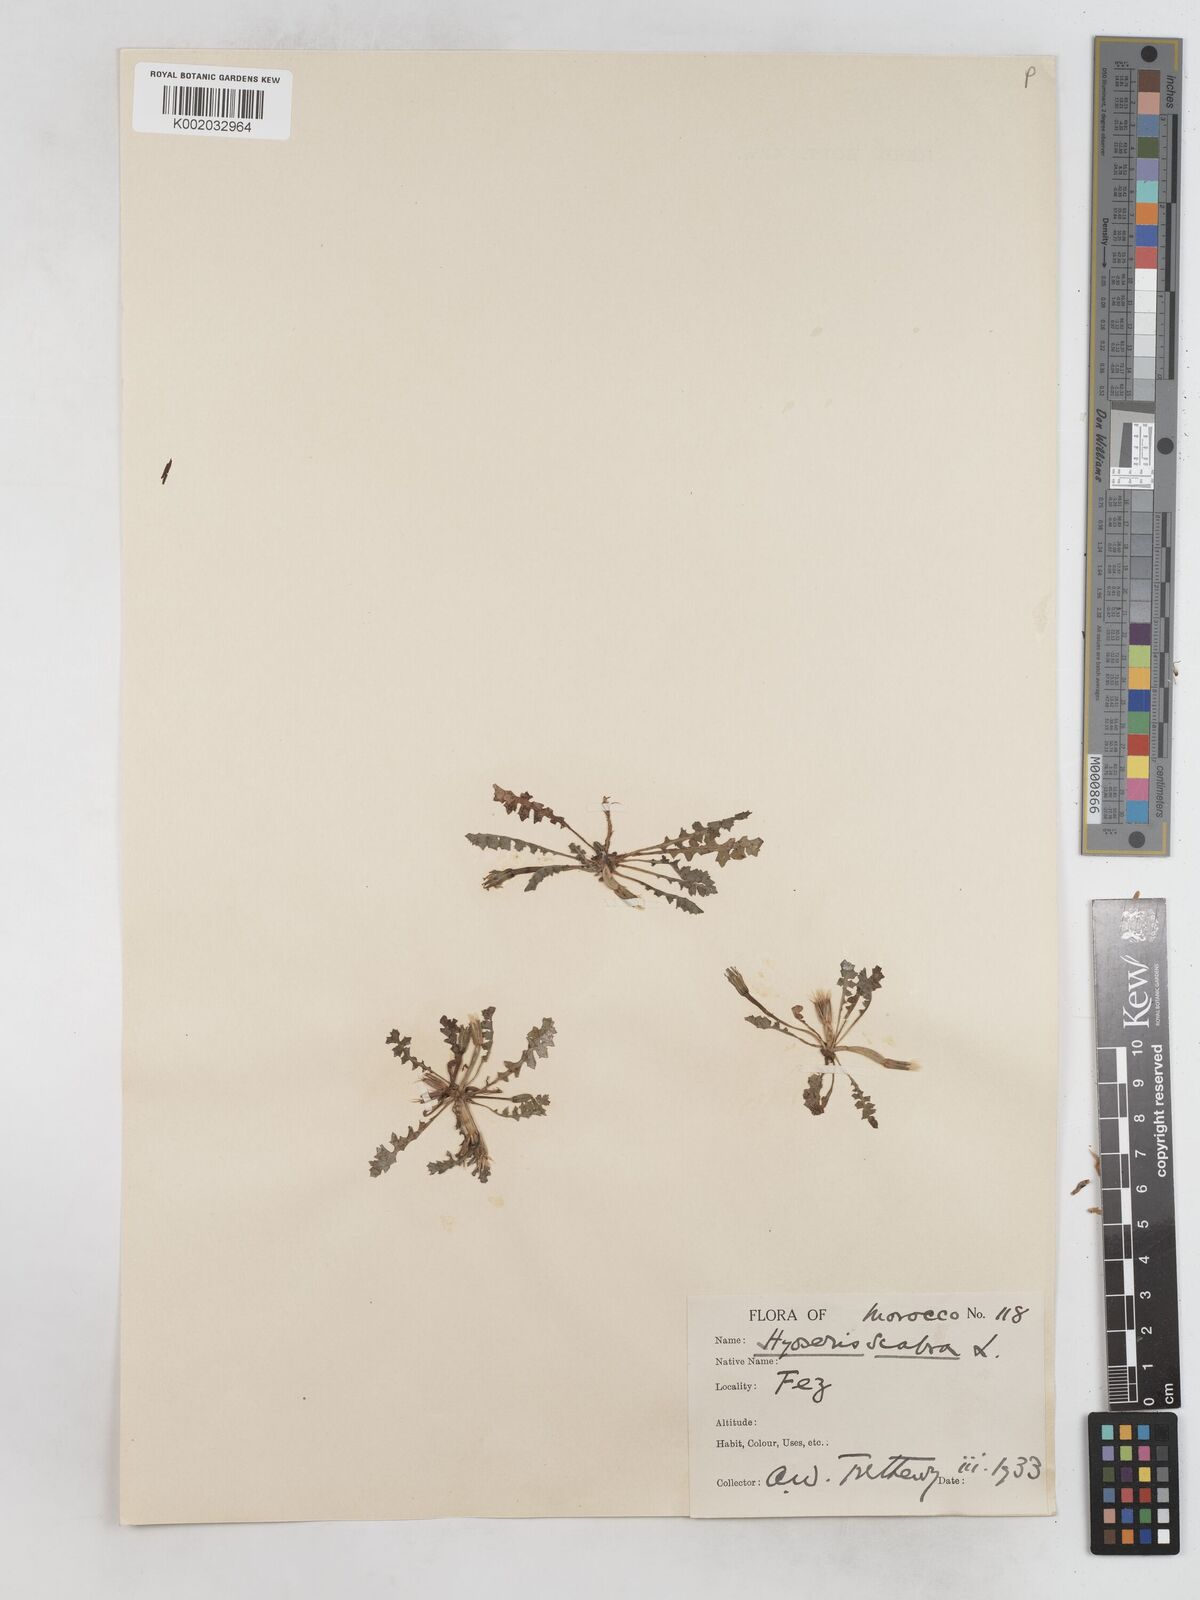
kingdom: Plantae
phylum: Tracheophyta
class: Magnoliopsida
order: Asterales
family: Asteraceae
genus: Hyoseris
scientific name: Hyoseris scabra
